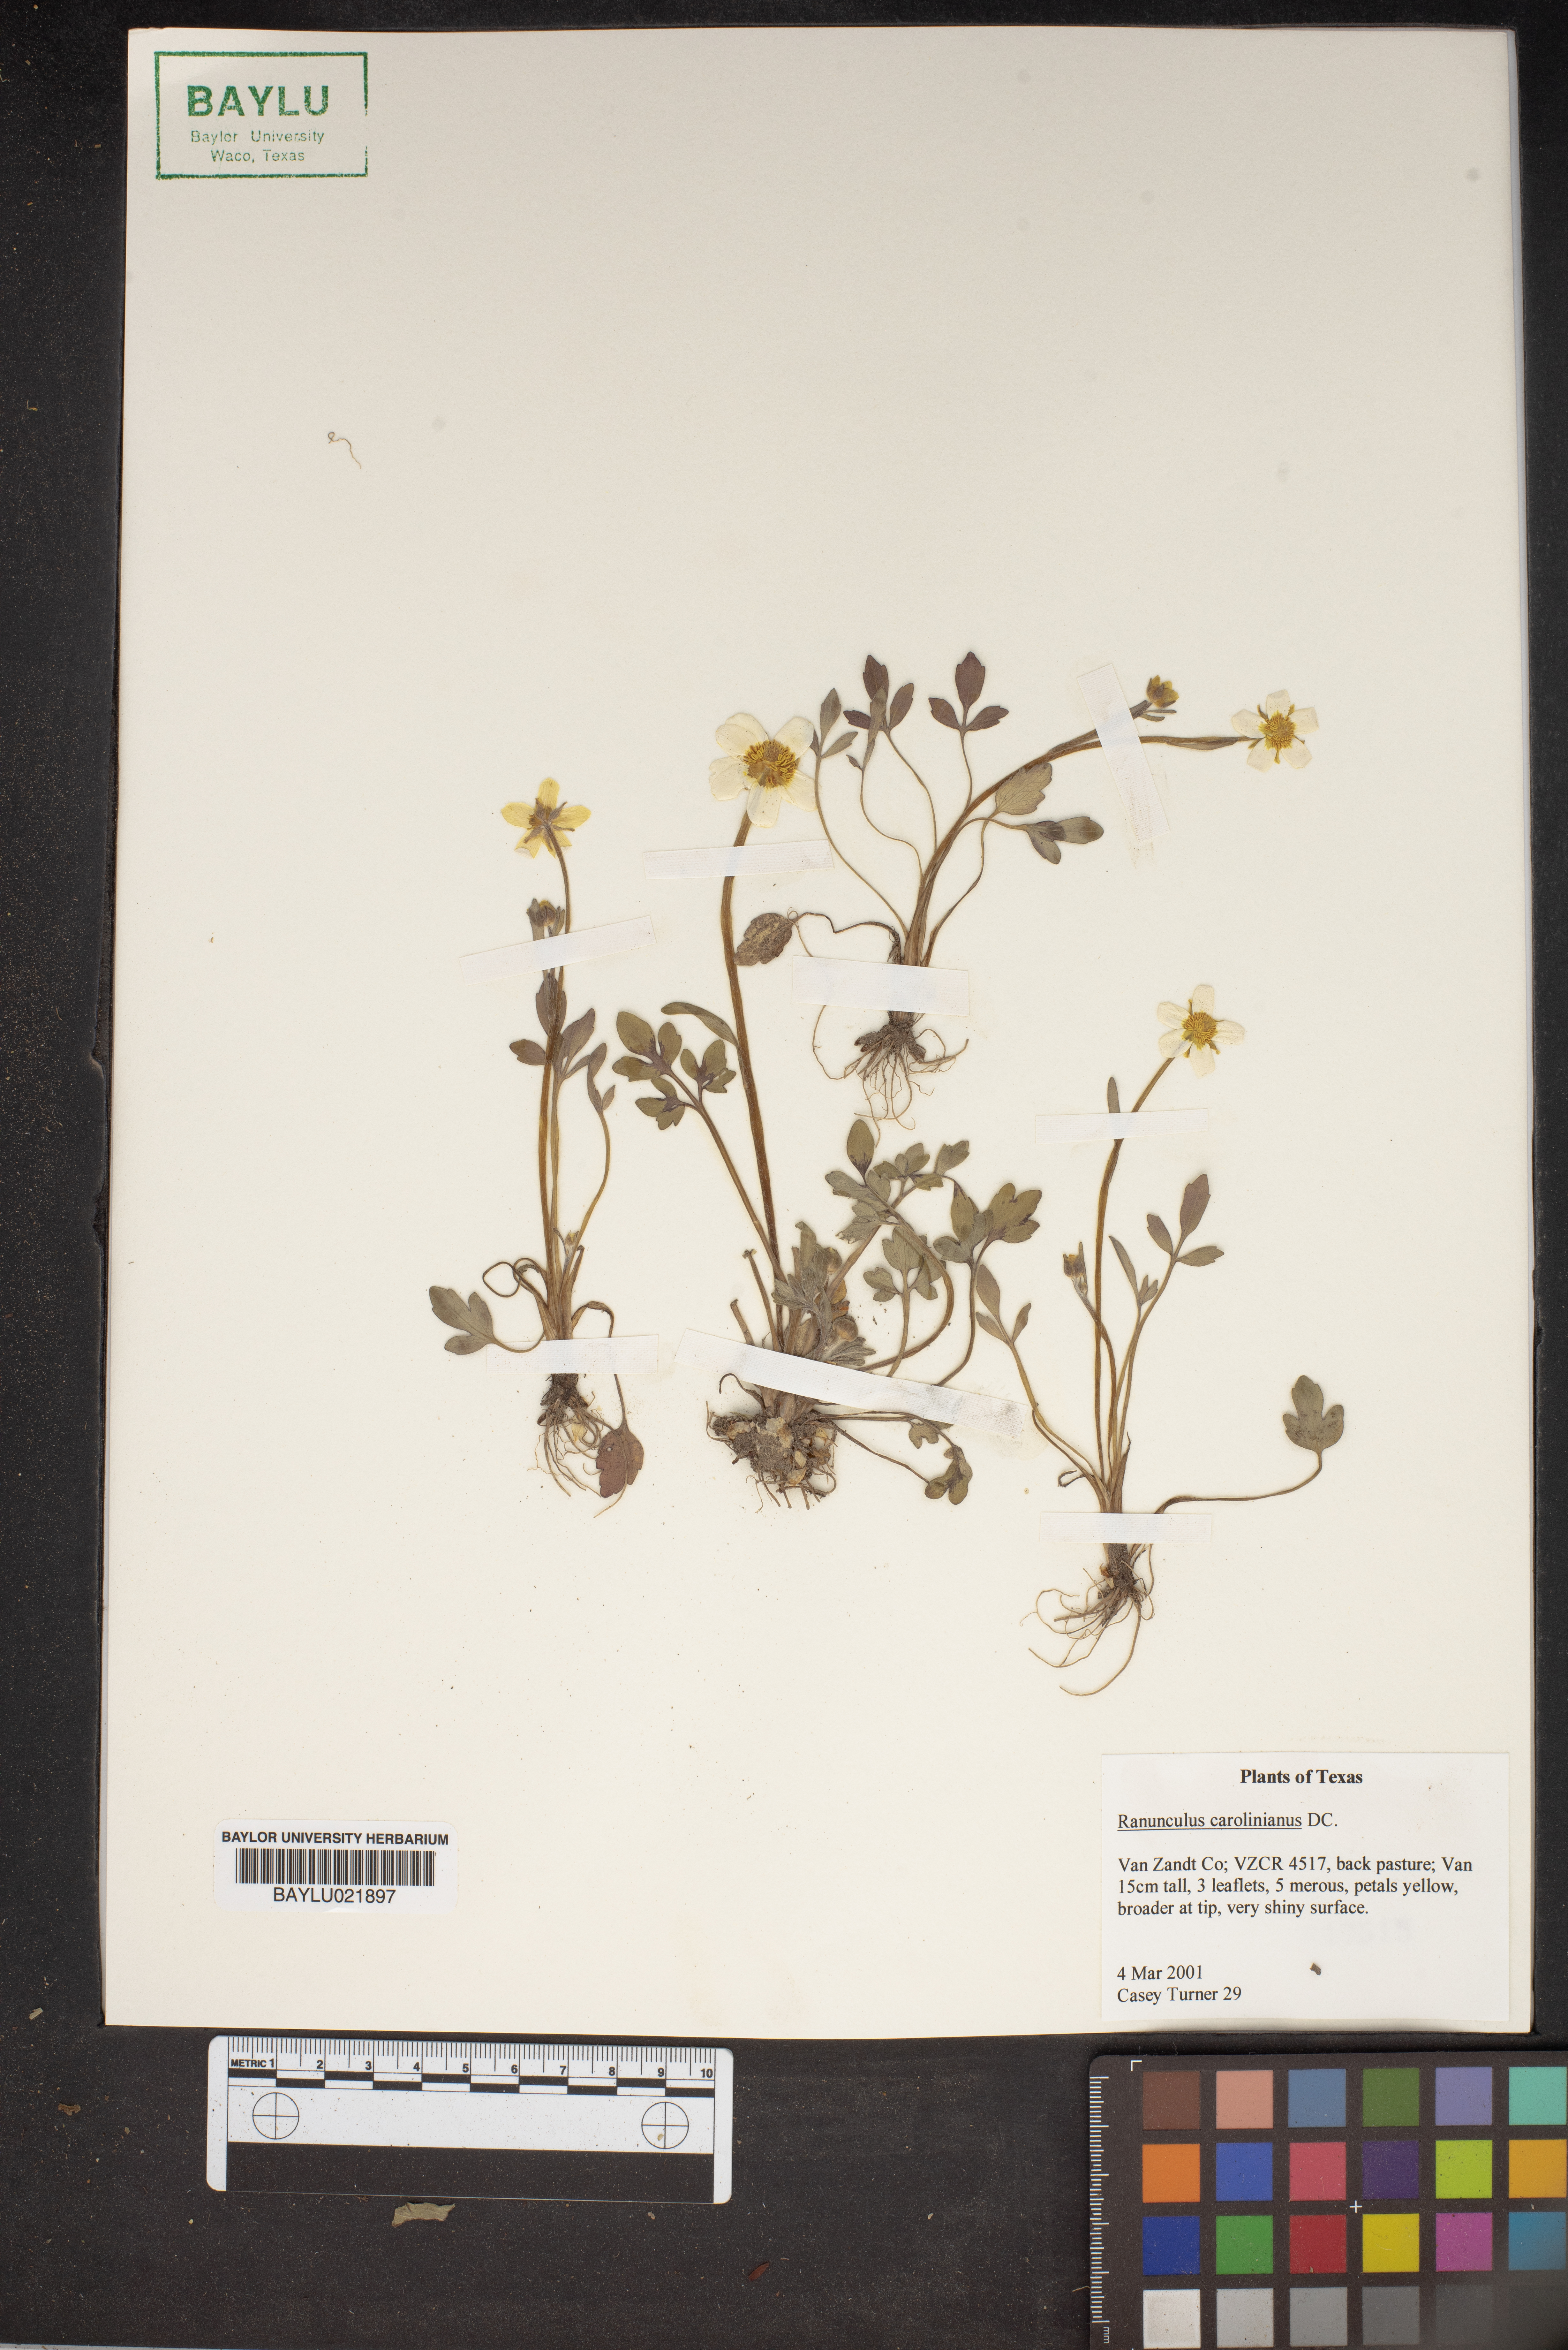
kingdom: Plantae
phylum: Tracheophyta
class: Magnoliopsida
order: Ranunculales
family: Ranunculaceae
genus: Ranunculus
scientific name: Ranunculus hispidus
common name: Bristly buttercup
